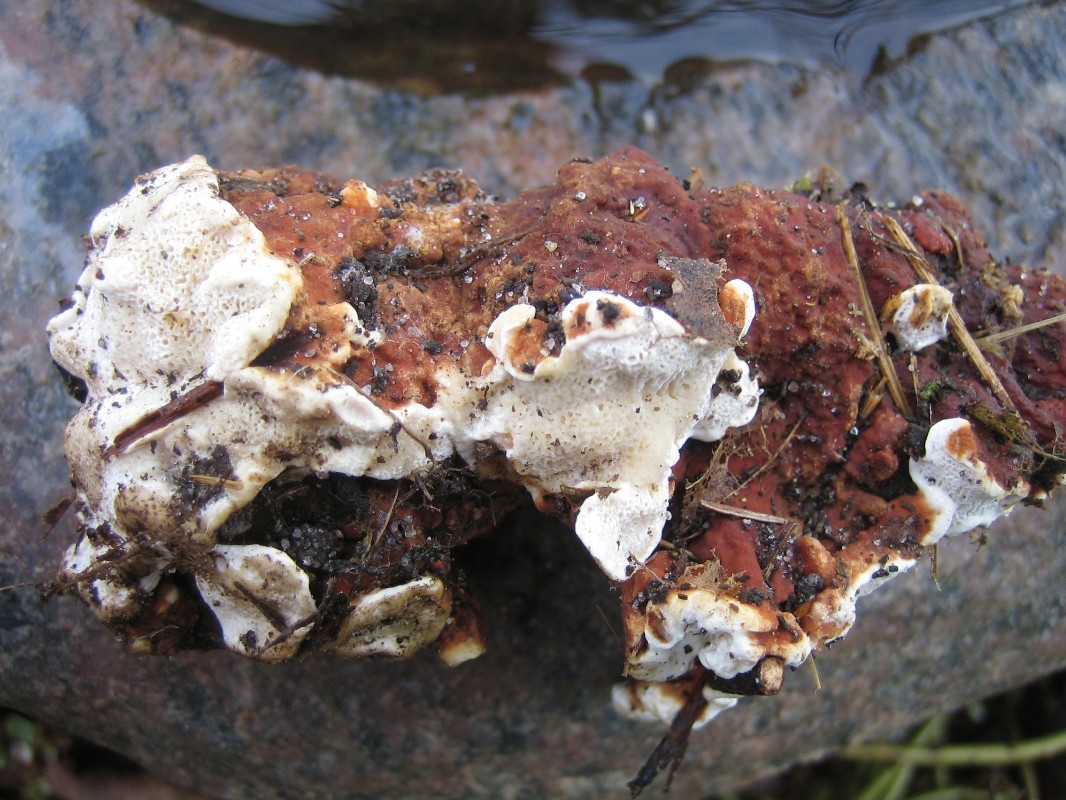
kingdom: Fungi
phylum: Basidiomycota
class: Agaricomycetes
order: Russulales
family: Bondarzewiaceae
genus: Heterobasidion
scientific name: Heterobasidion annosum
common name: almindelig rodfordærver
